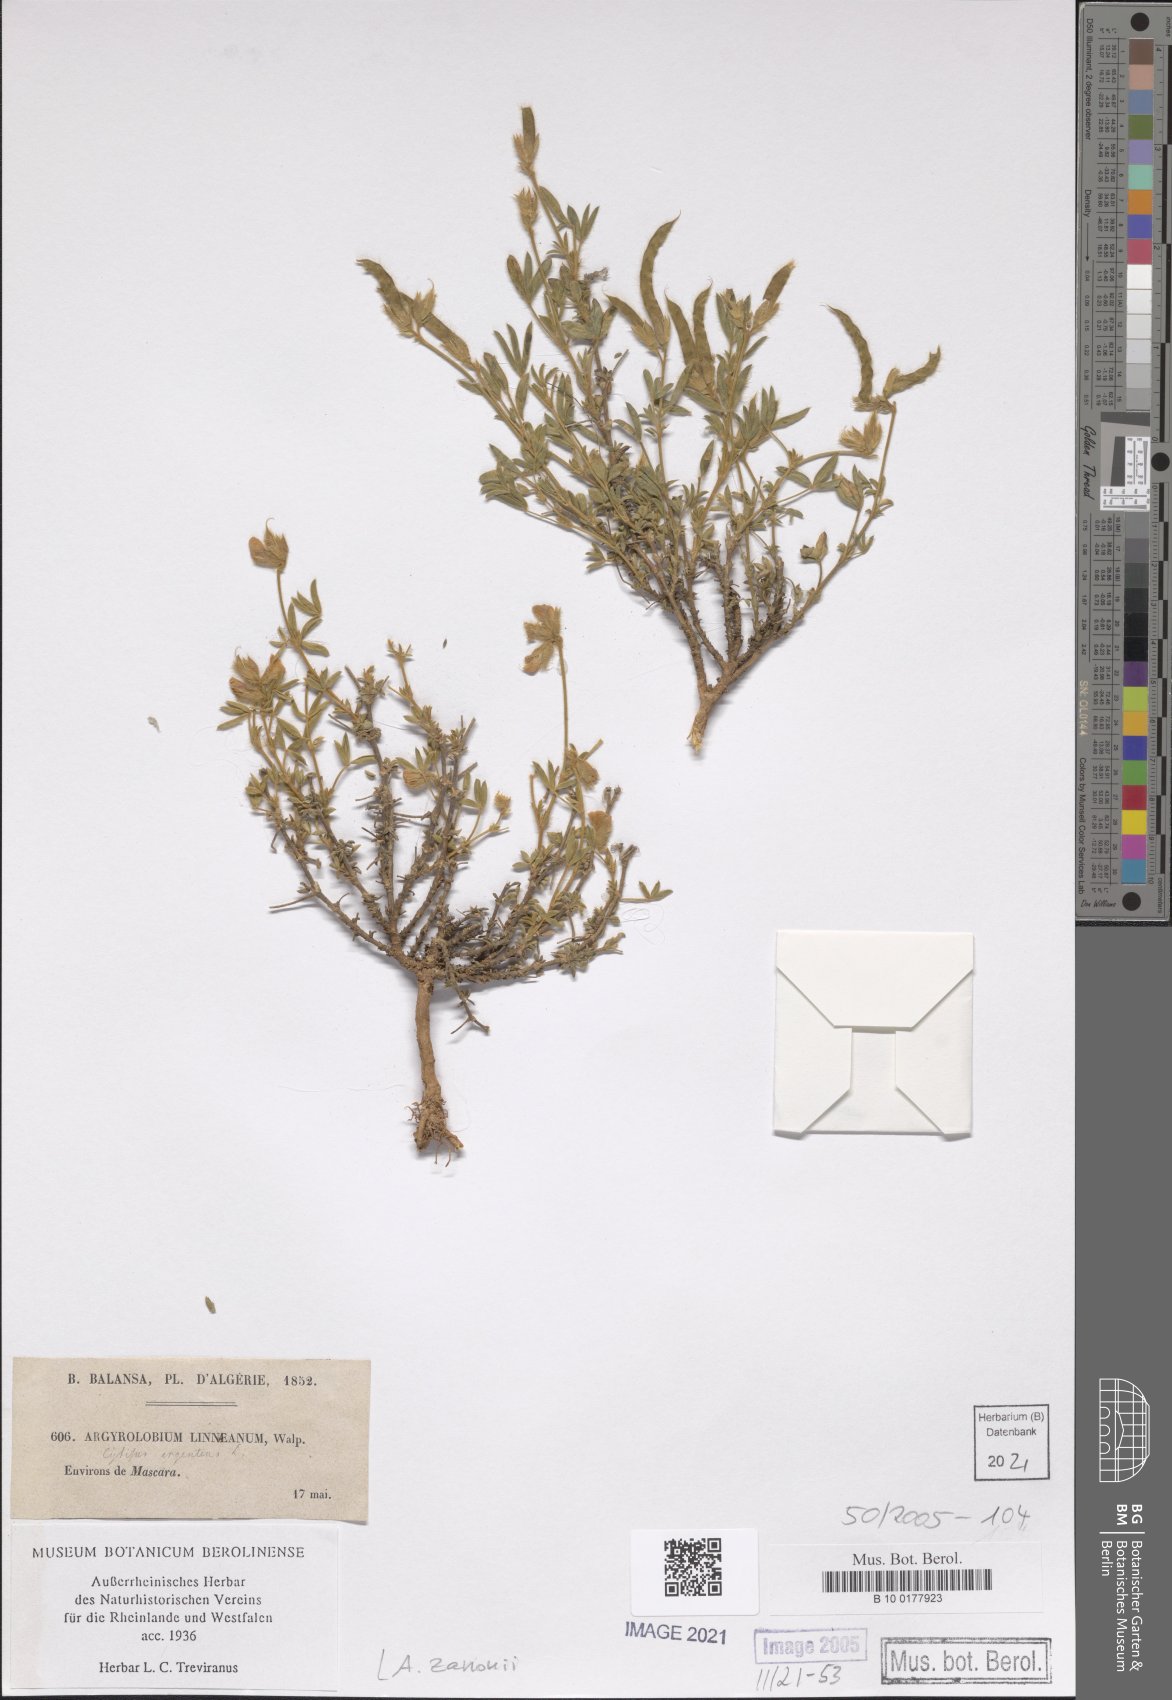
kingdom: Plantae
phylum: Tracheophyta
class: Magnoliopsida
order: Fabales
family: Fabaceae
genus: Argyrolobium
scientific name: Argyrolobium zanonii
